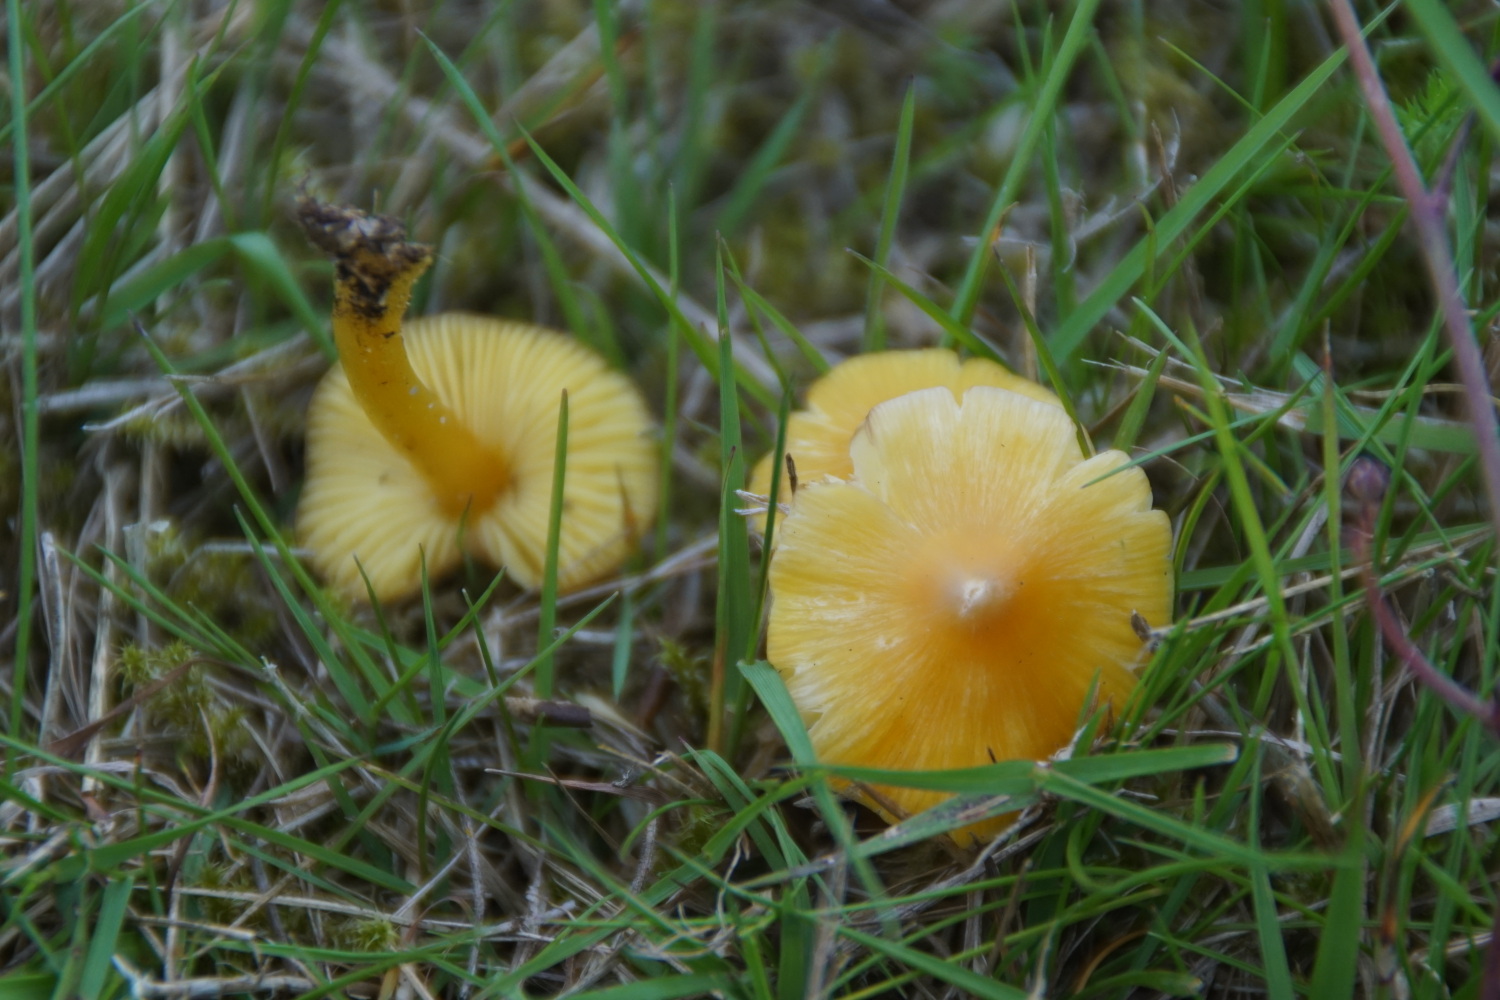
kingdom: Fungi
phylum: Basidiomycota
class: Agaricomycetes
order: Agaricales
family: Hygrophoraceae
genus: Hygrocybe
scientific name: Hygrocybe acutoconica
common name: spidspuklet vokshat
